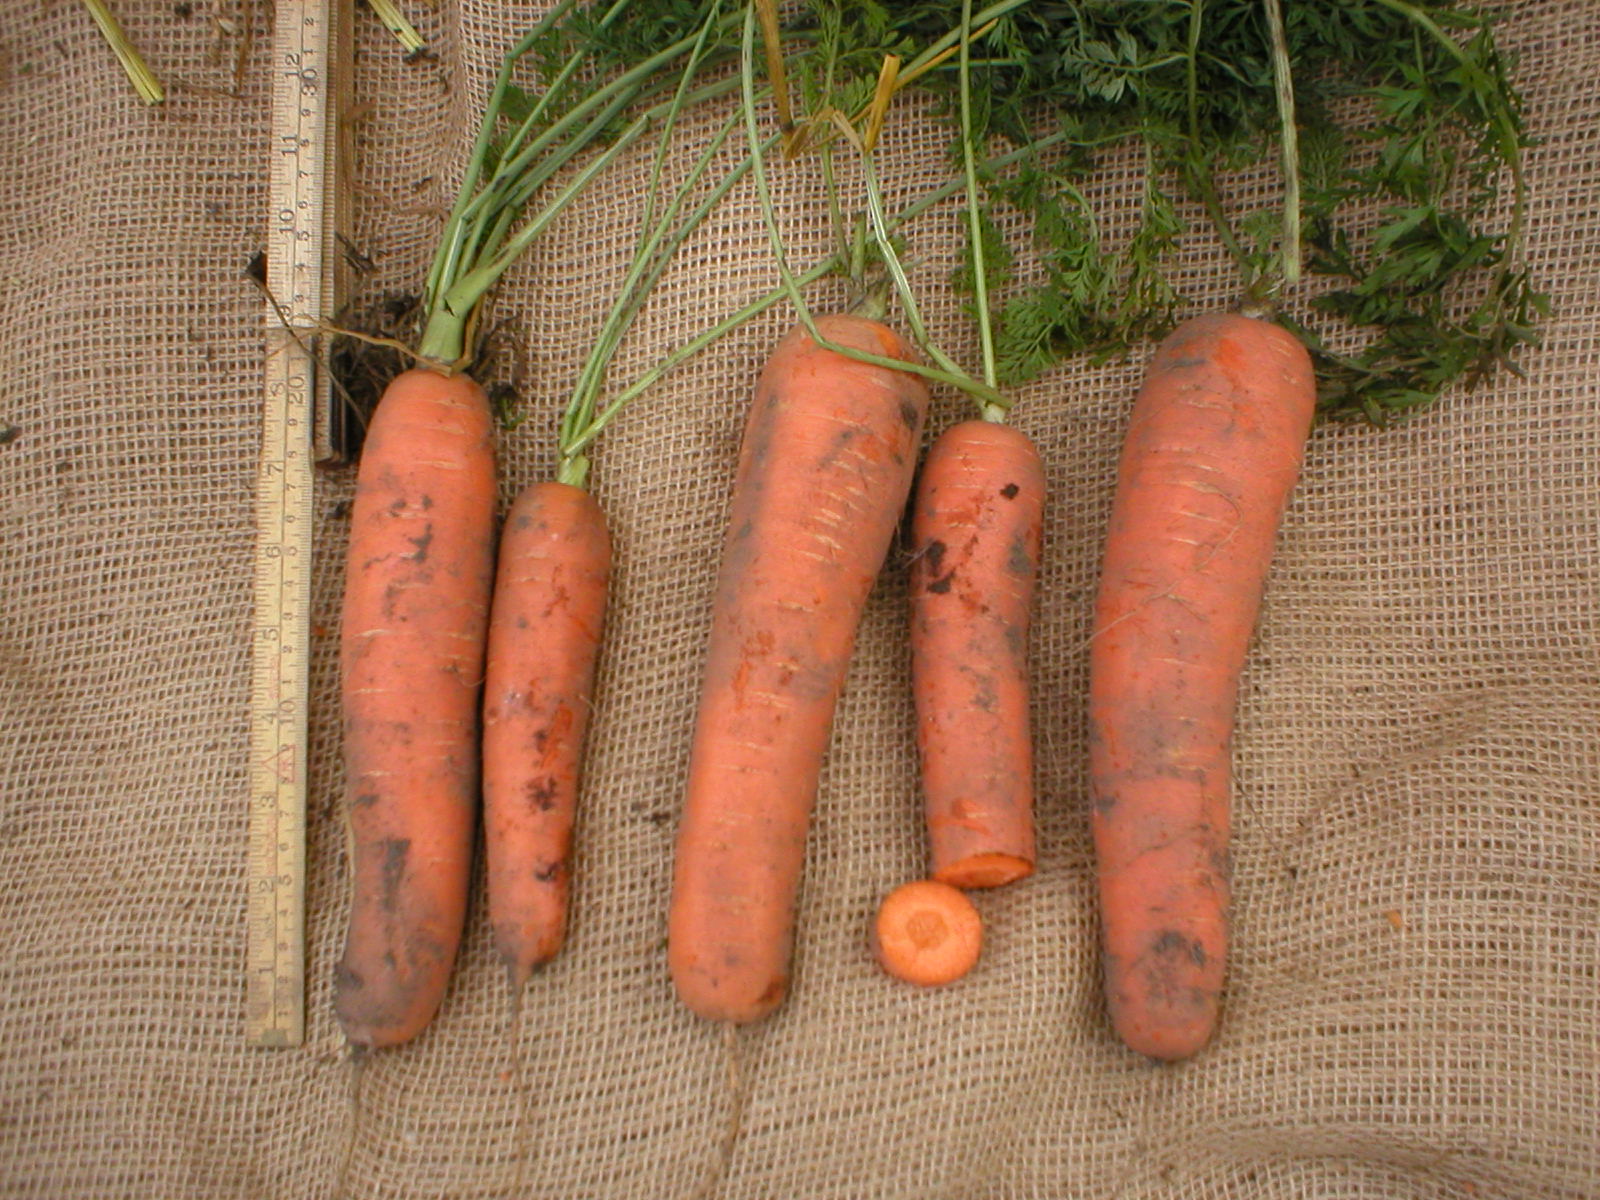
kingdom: Plantae
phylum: Tracheophyta
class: Magnoliopsida
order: Apiales
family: Apiaceae
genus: Daucus
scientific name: Daucus carota
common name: Wild carrot
